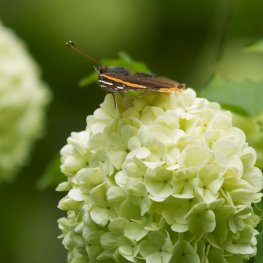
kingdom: Animalia
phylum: Arthropoda
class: Insecta
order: Lepidoptera
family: Nymphalidae
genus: Vanessa
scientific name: Vanessa atalanta
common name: Red Admiral
